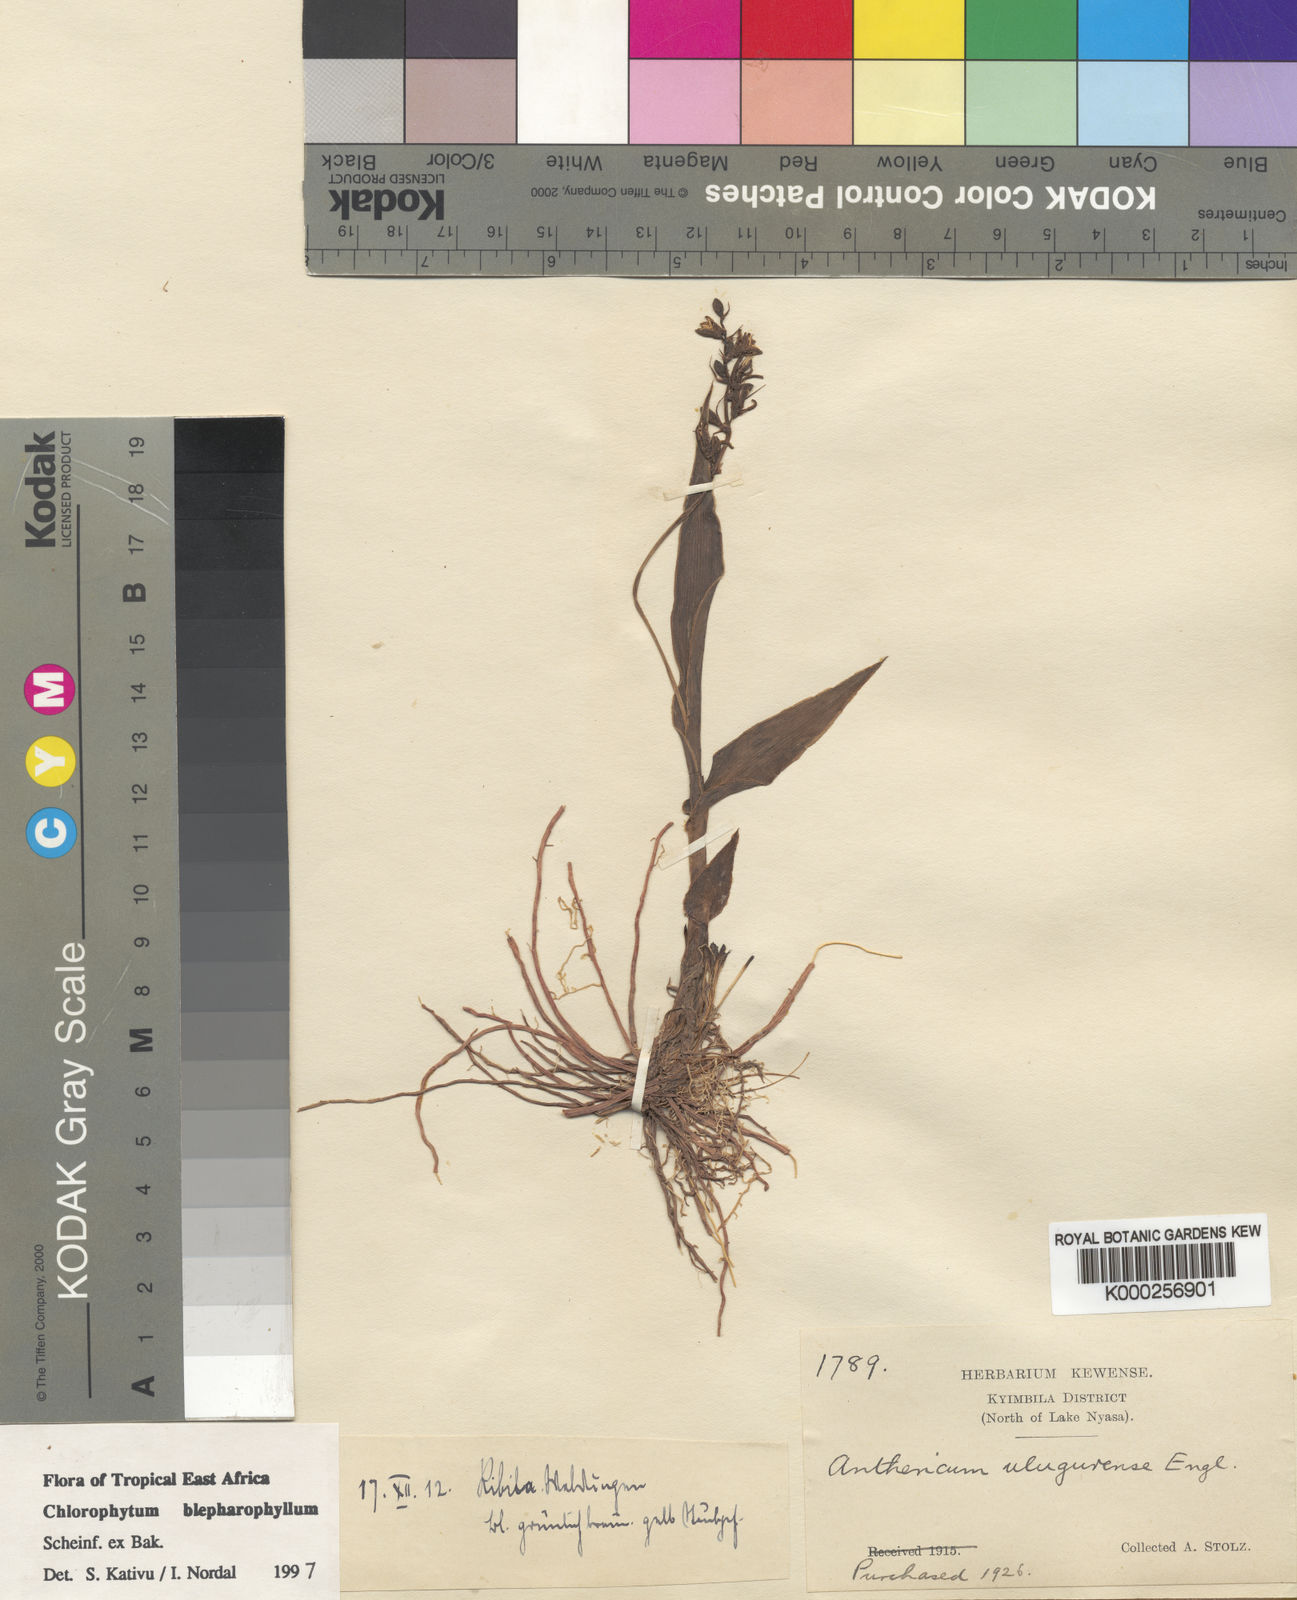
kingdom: Plantae
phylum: Tracheophyta
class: Liliopsida
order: Asparagales
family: Asparagaceae
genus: Chlorophytum
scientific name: Chlorophytum blepharophyllum
